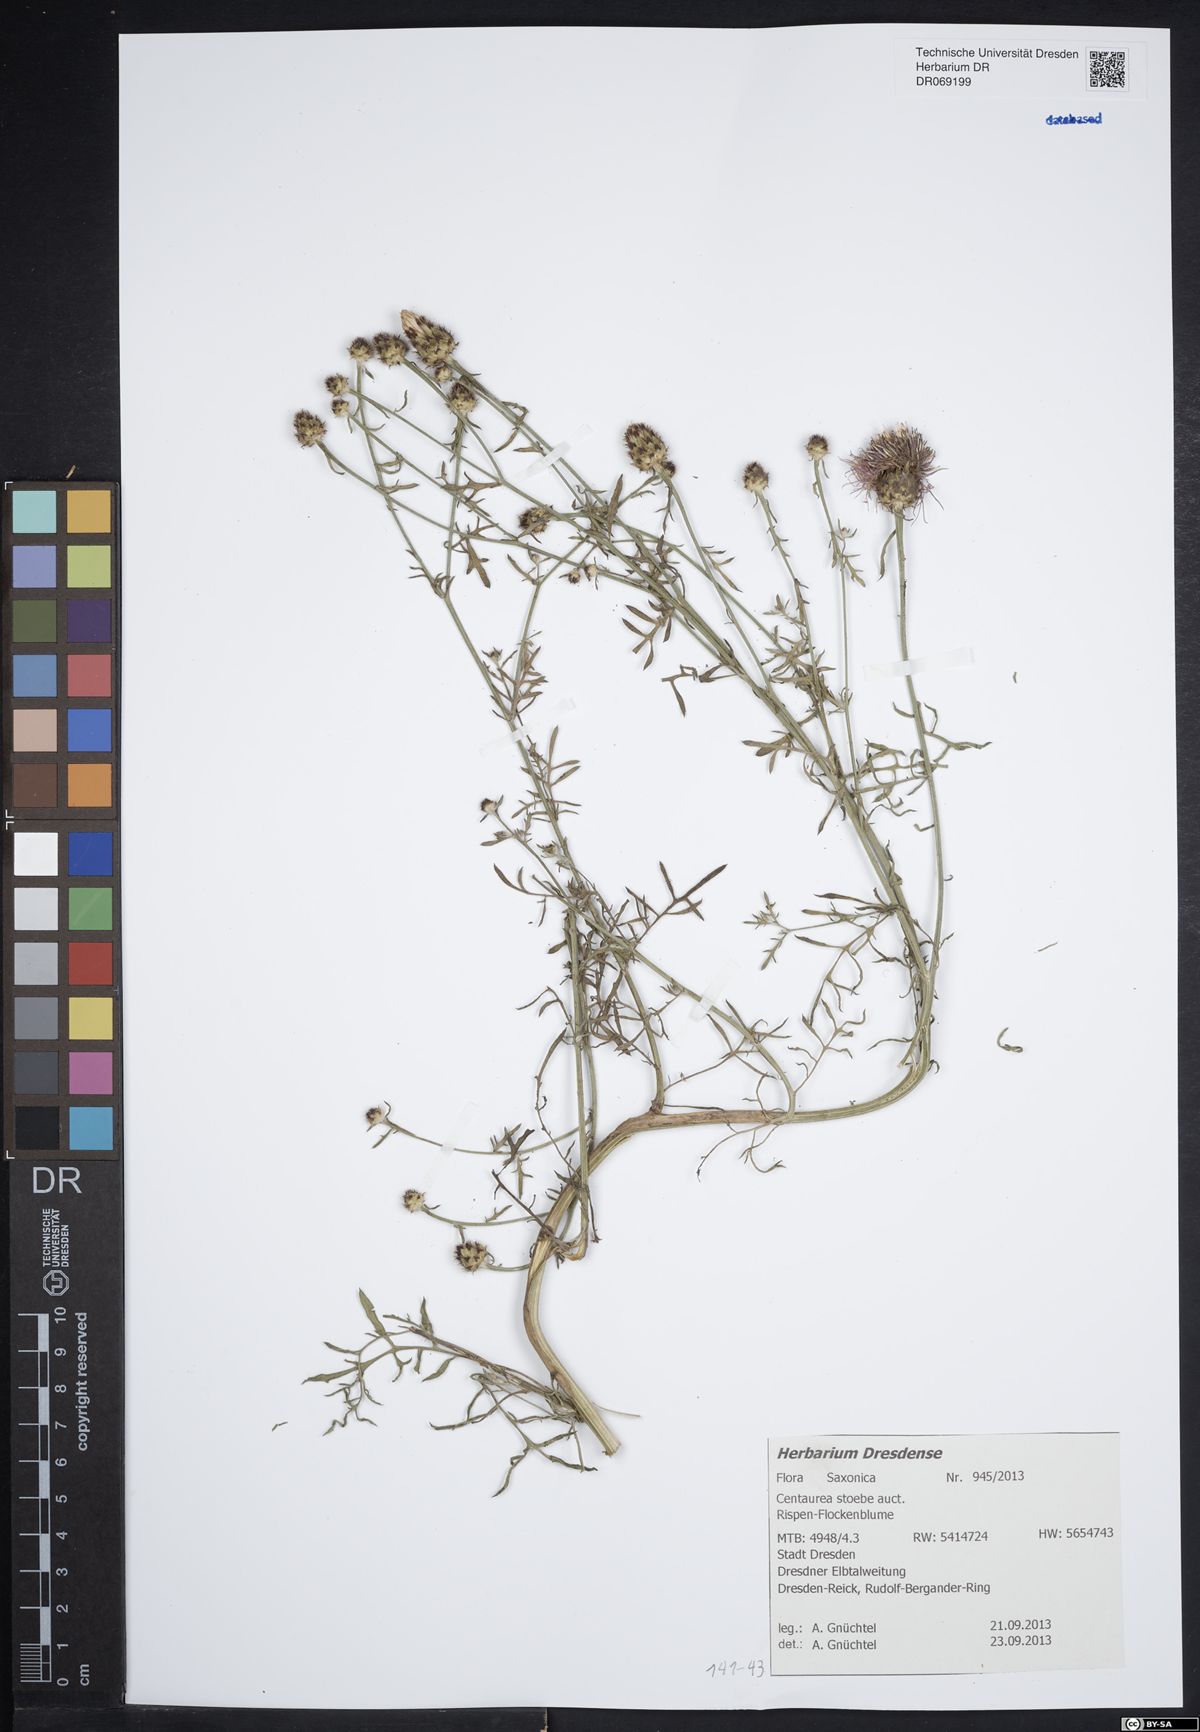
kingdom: Plantae
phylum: Tracheophyta
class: Magnoliopsida
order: Asterales
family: Asteraceae
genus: Centaurea
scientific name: Centaurea stoebe
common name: Spotted knapweed
